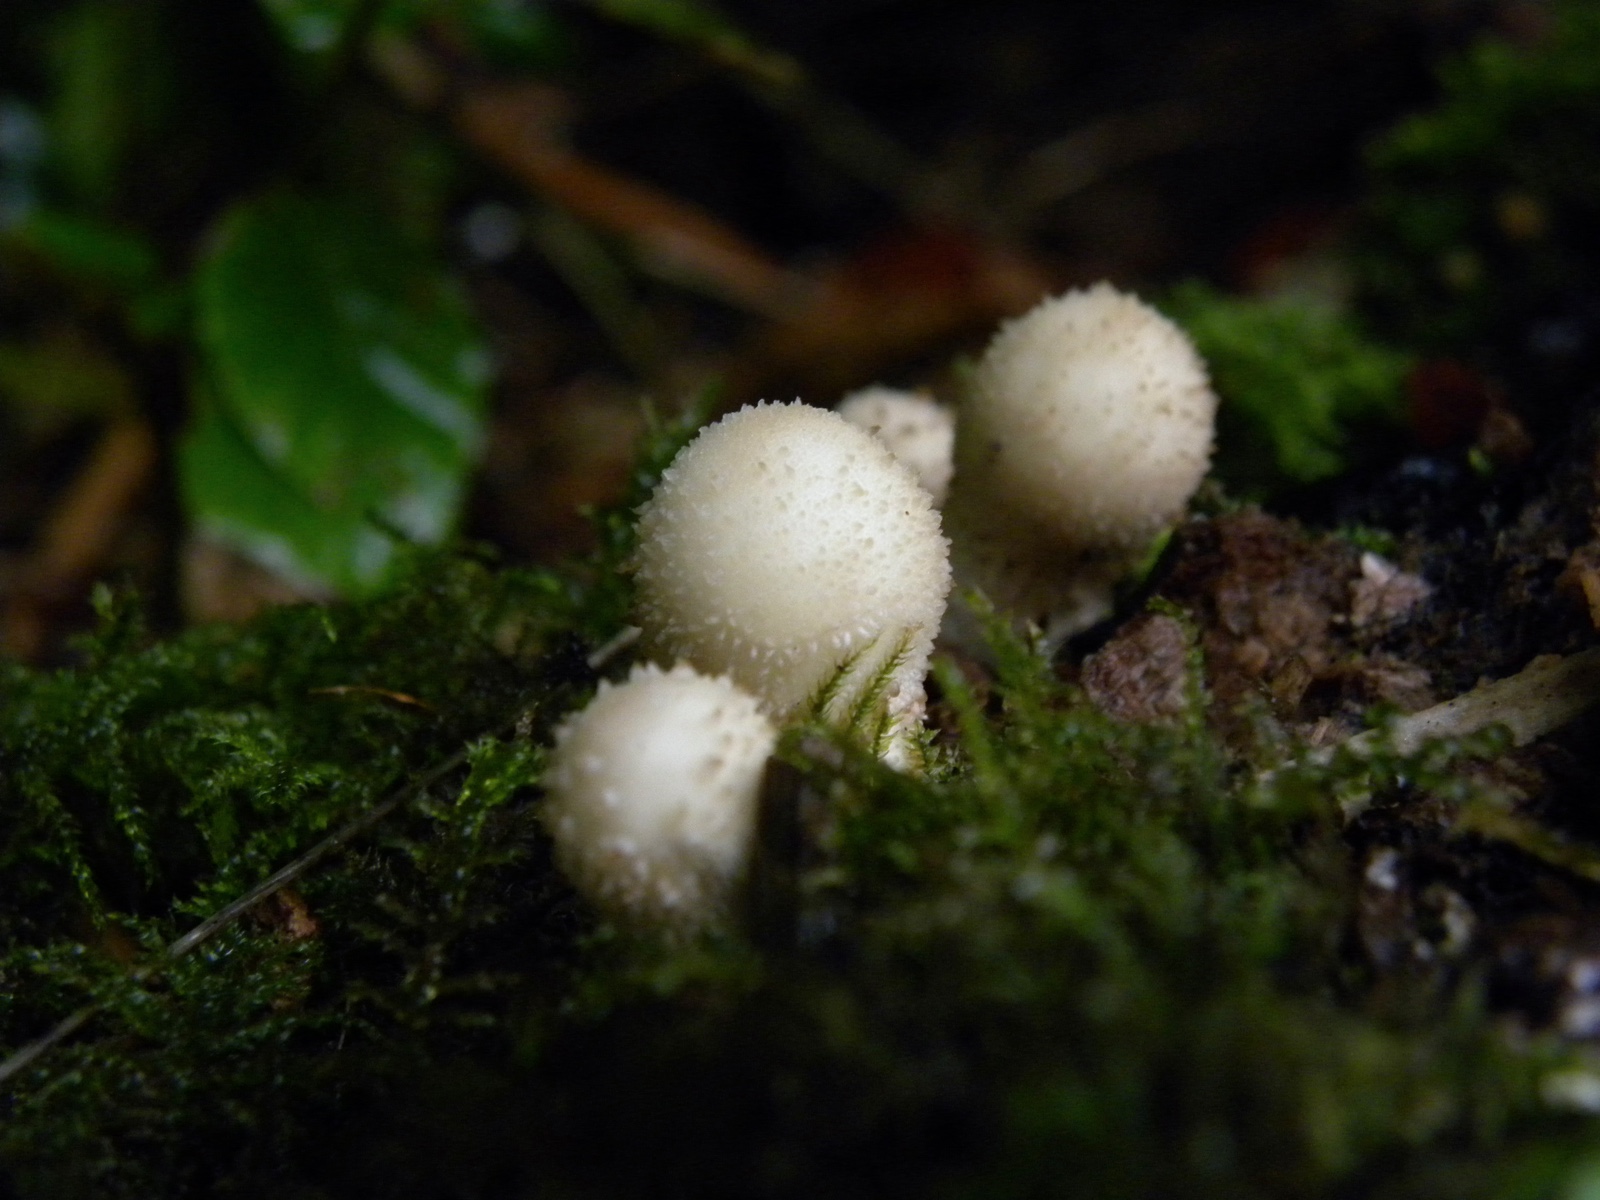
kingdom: Fungi
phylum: Basidiomycota
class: Agaricomycetes
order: Agaricales
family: Lycoperdaceae
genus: Apioperdon
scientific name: Apioperdon pyriforme
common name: pære-støvbold
